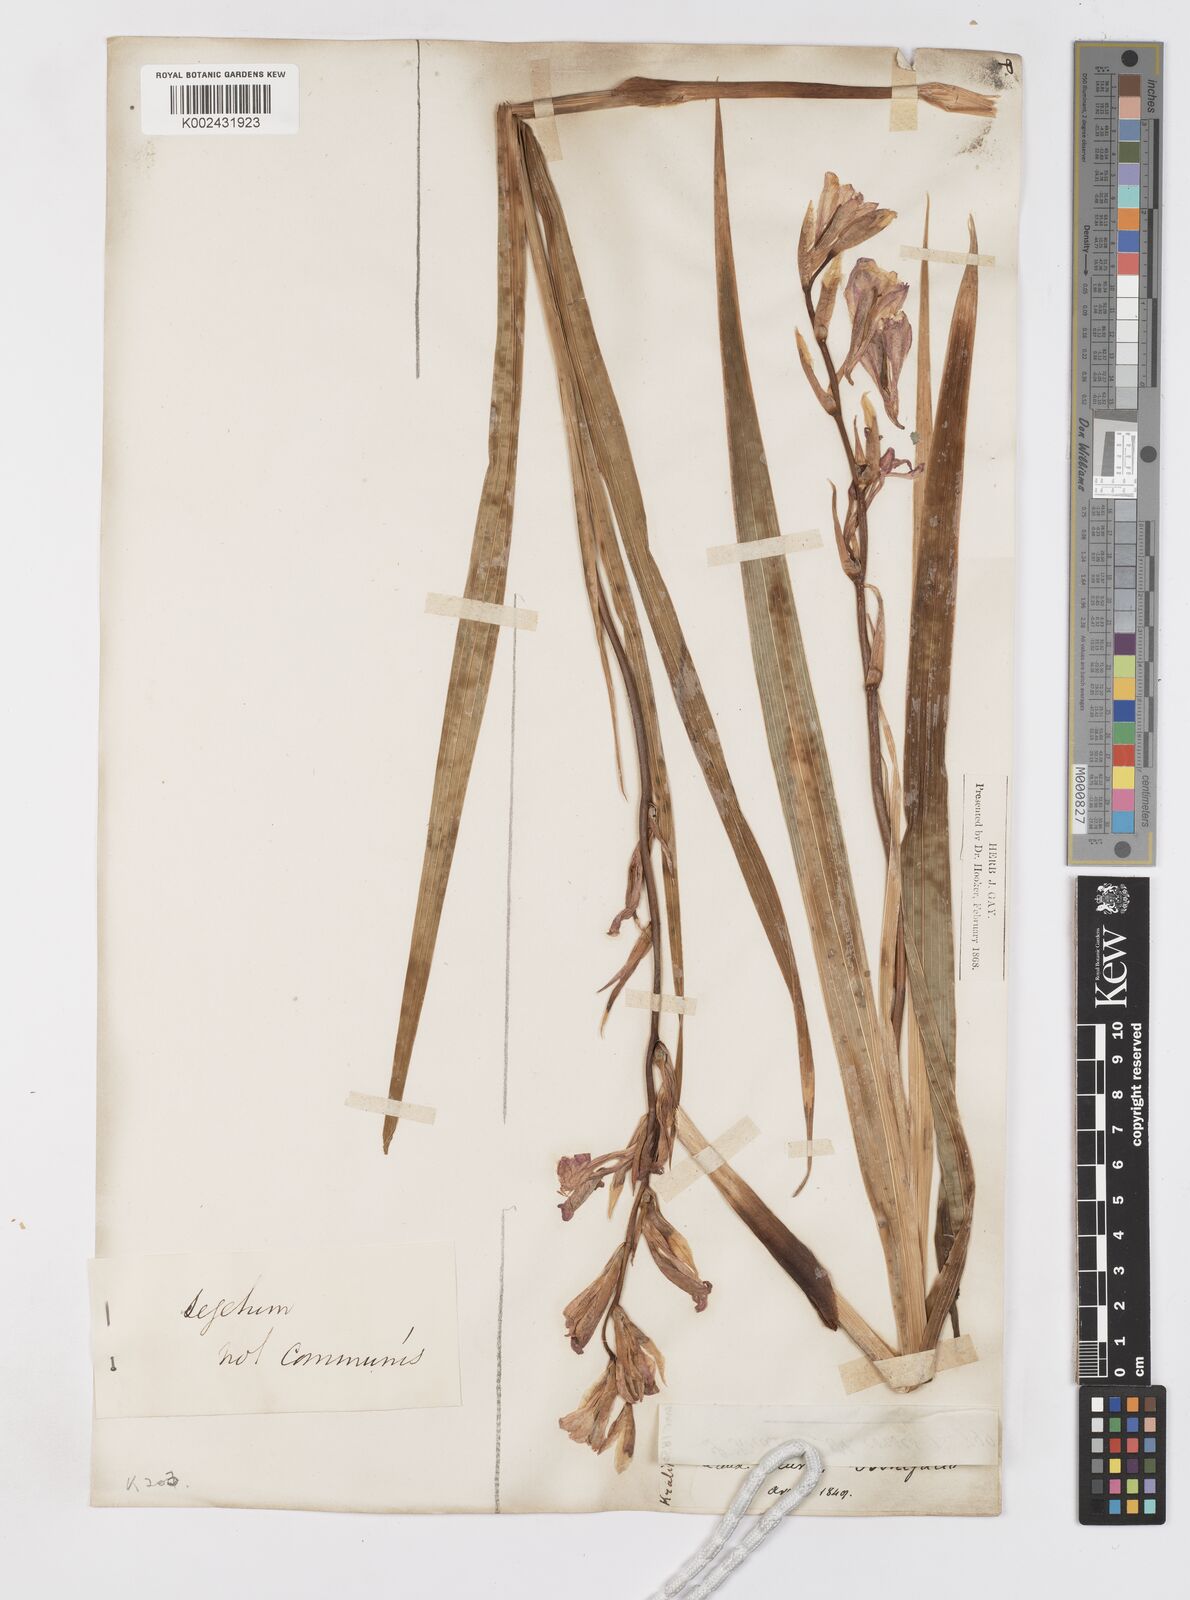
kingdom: Plantae
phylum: Tracheophyta
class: Liliopsida
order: Asparagales
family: Iridaceae
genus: Gladiolus
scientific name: Gladiolus italicus
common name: Field gladiolus
